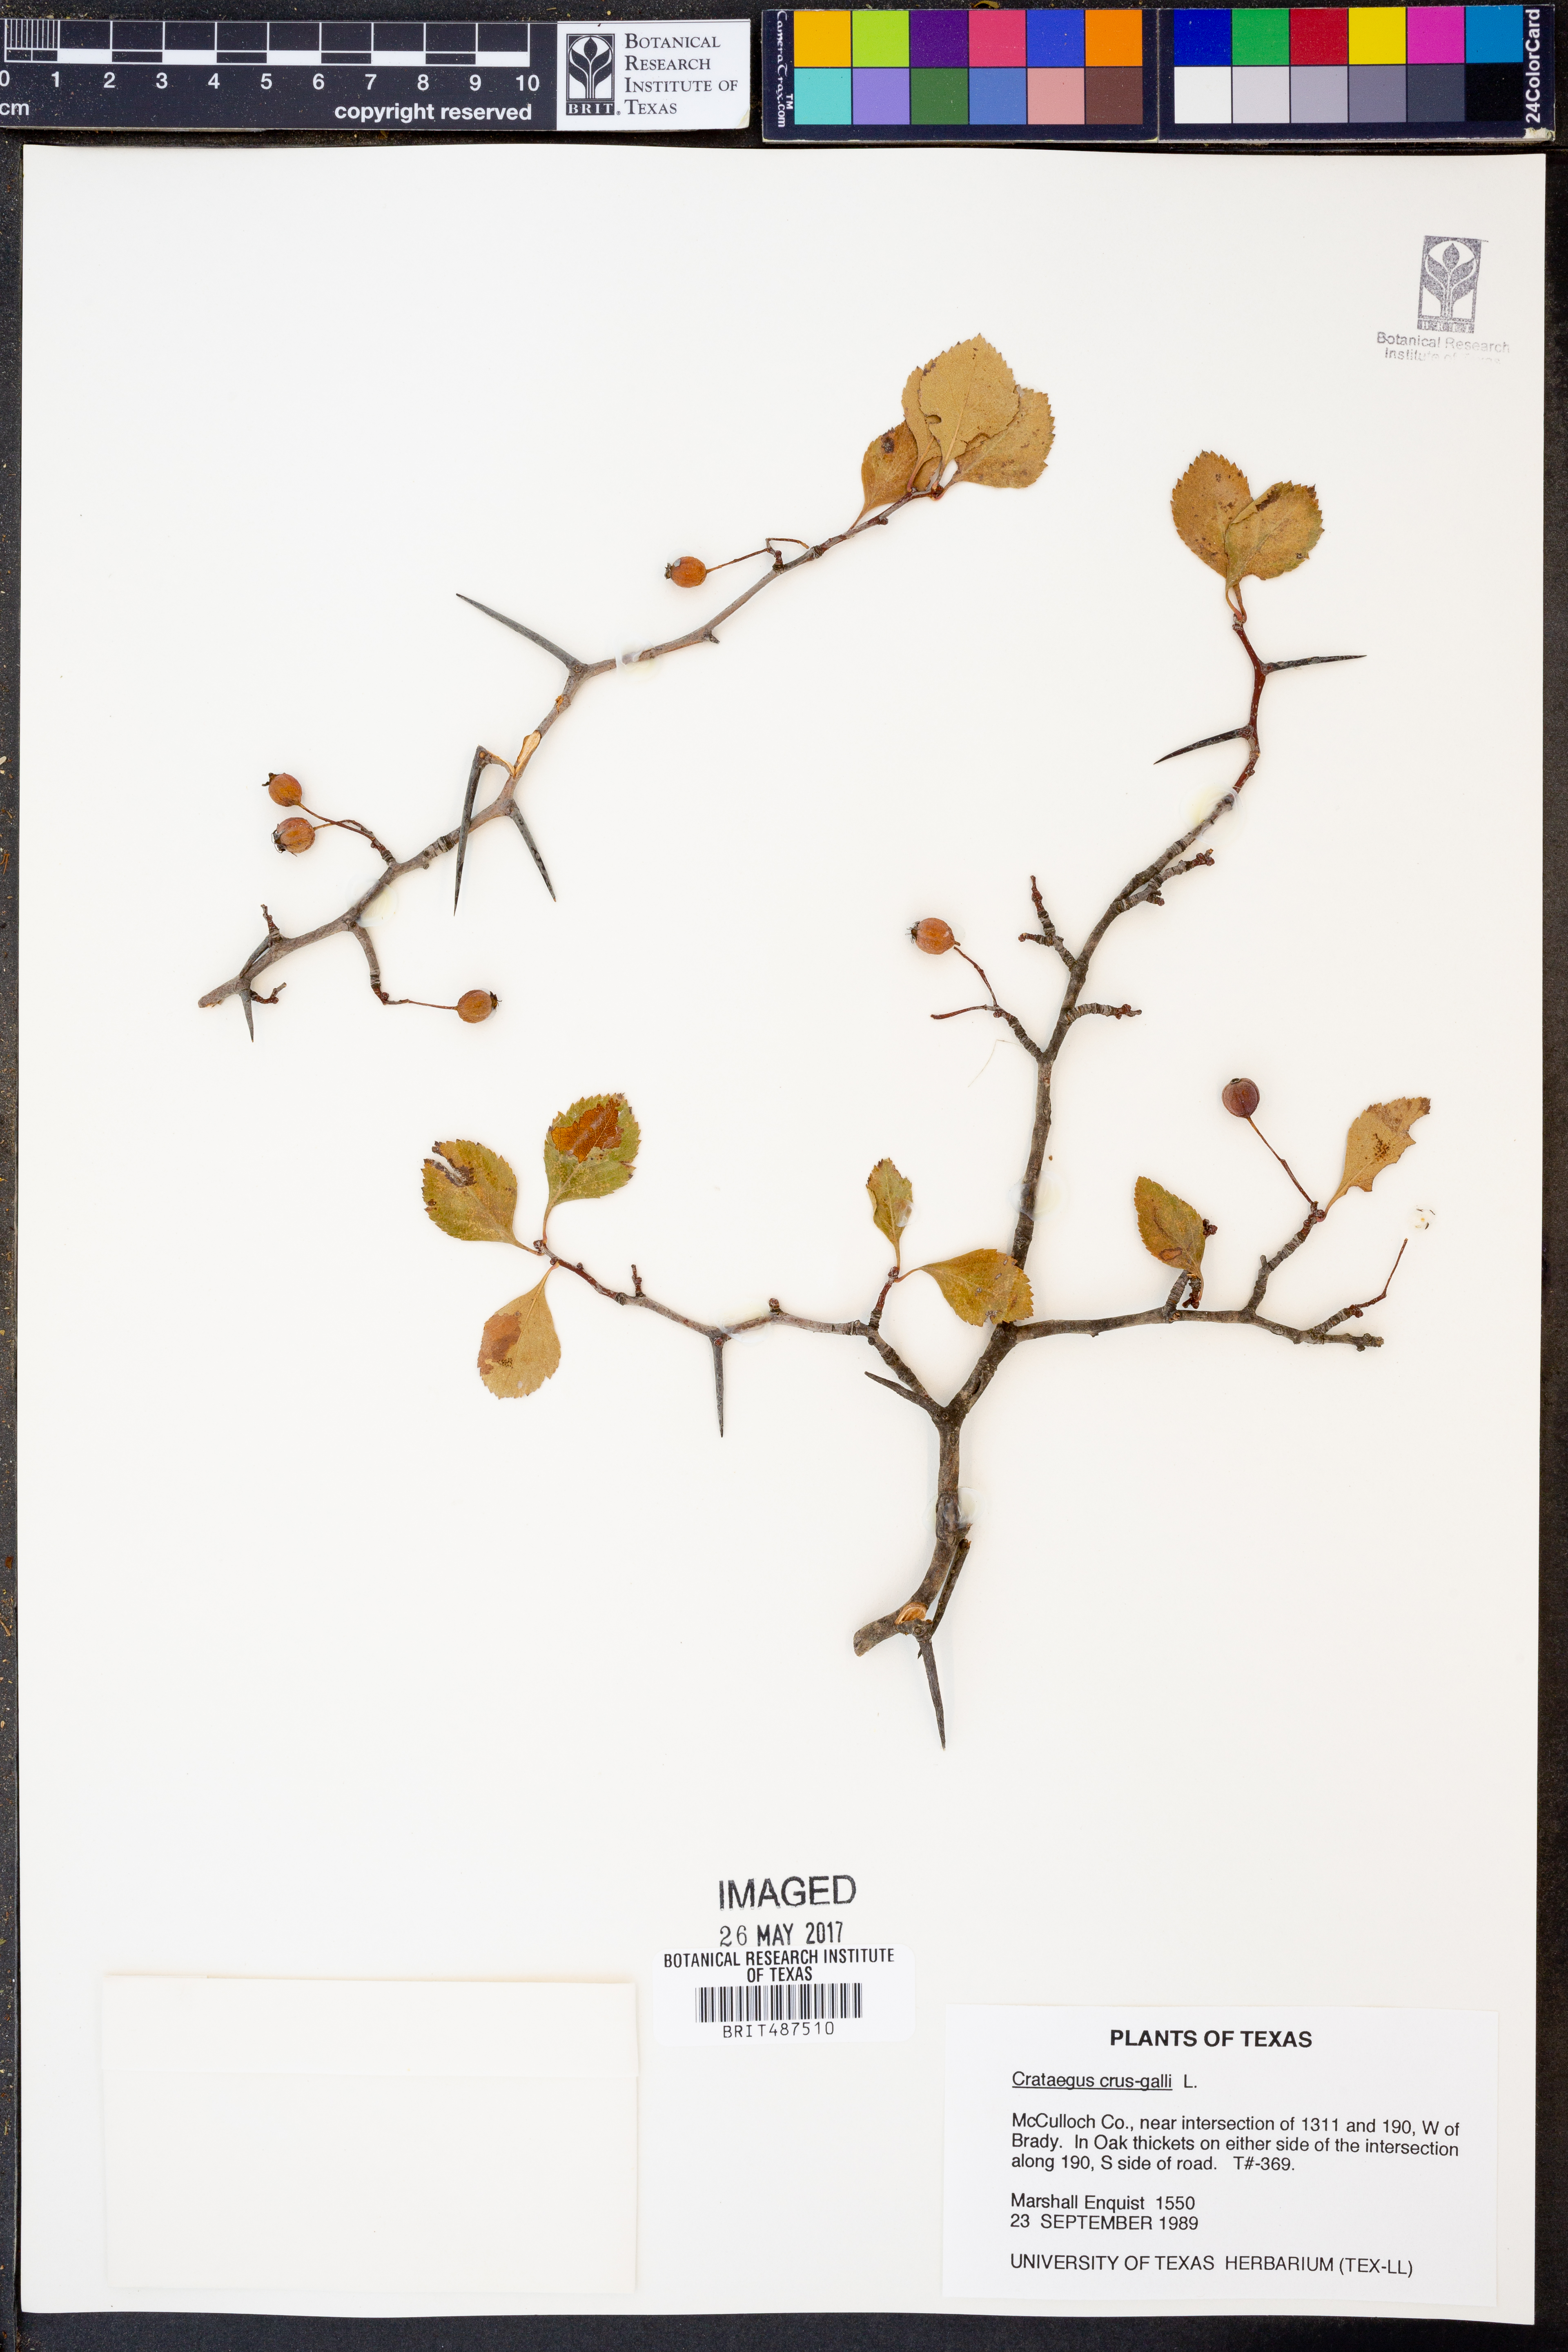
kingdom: Plantae
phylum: Tracheophyta
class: Magnoliopsida
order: Rosales
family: Rosaceae
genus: Crataegus
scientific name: Crataegus crus-galli
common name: Cockspurthorn
